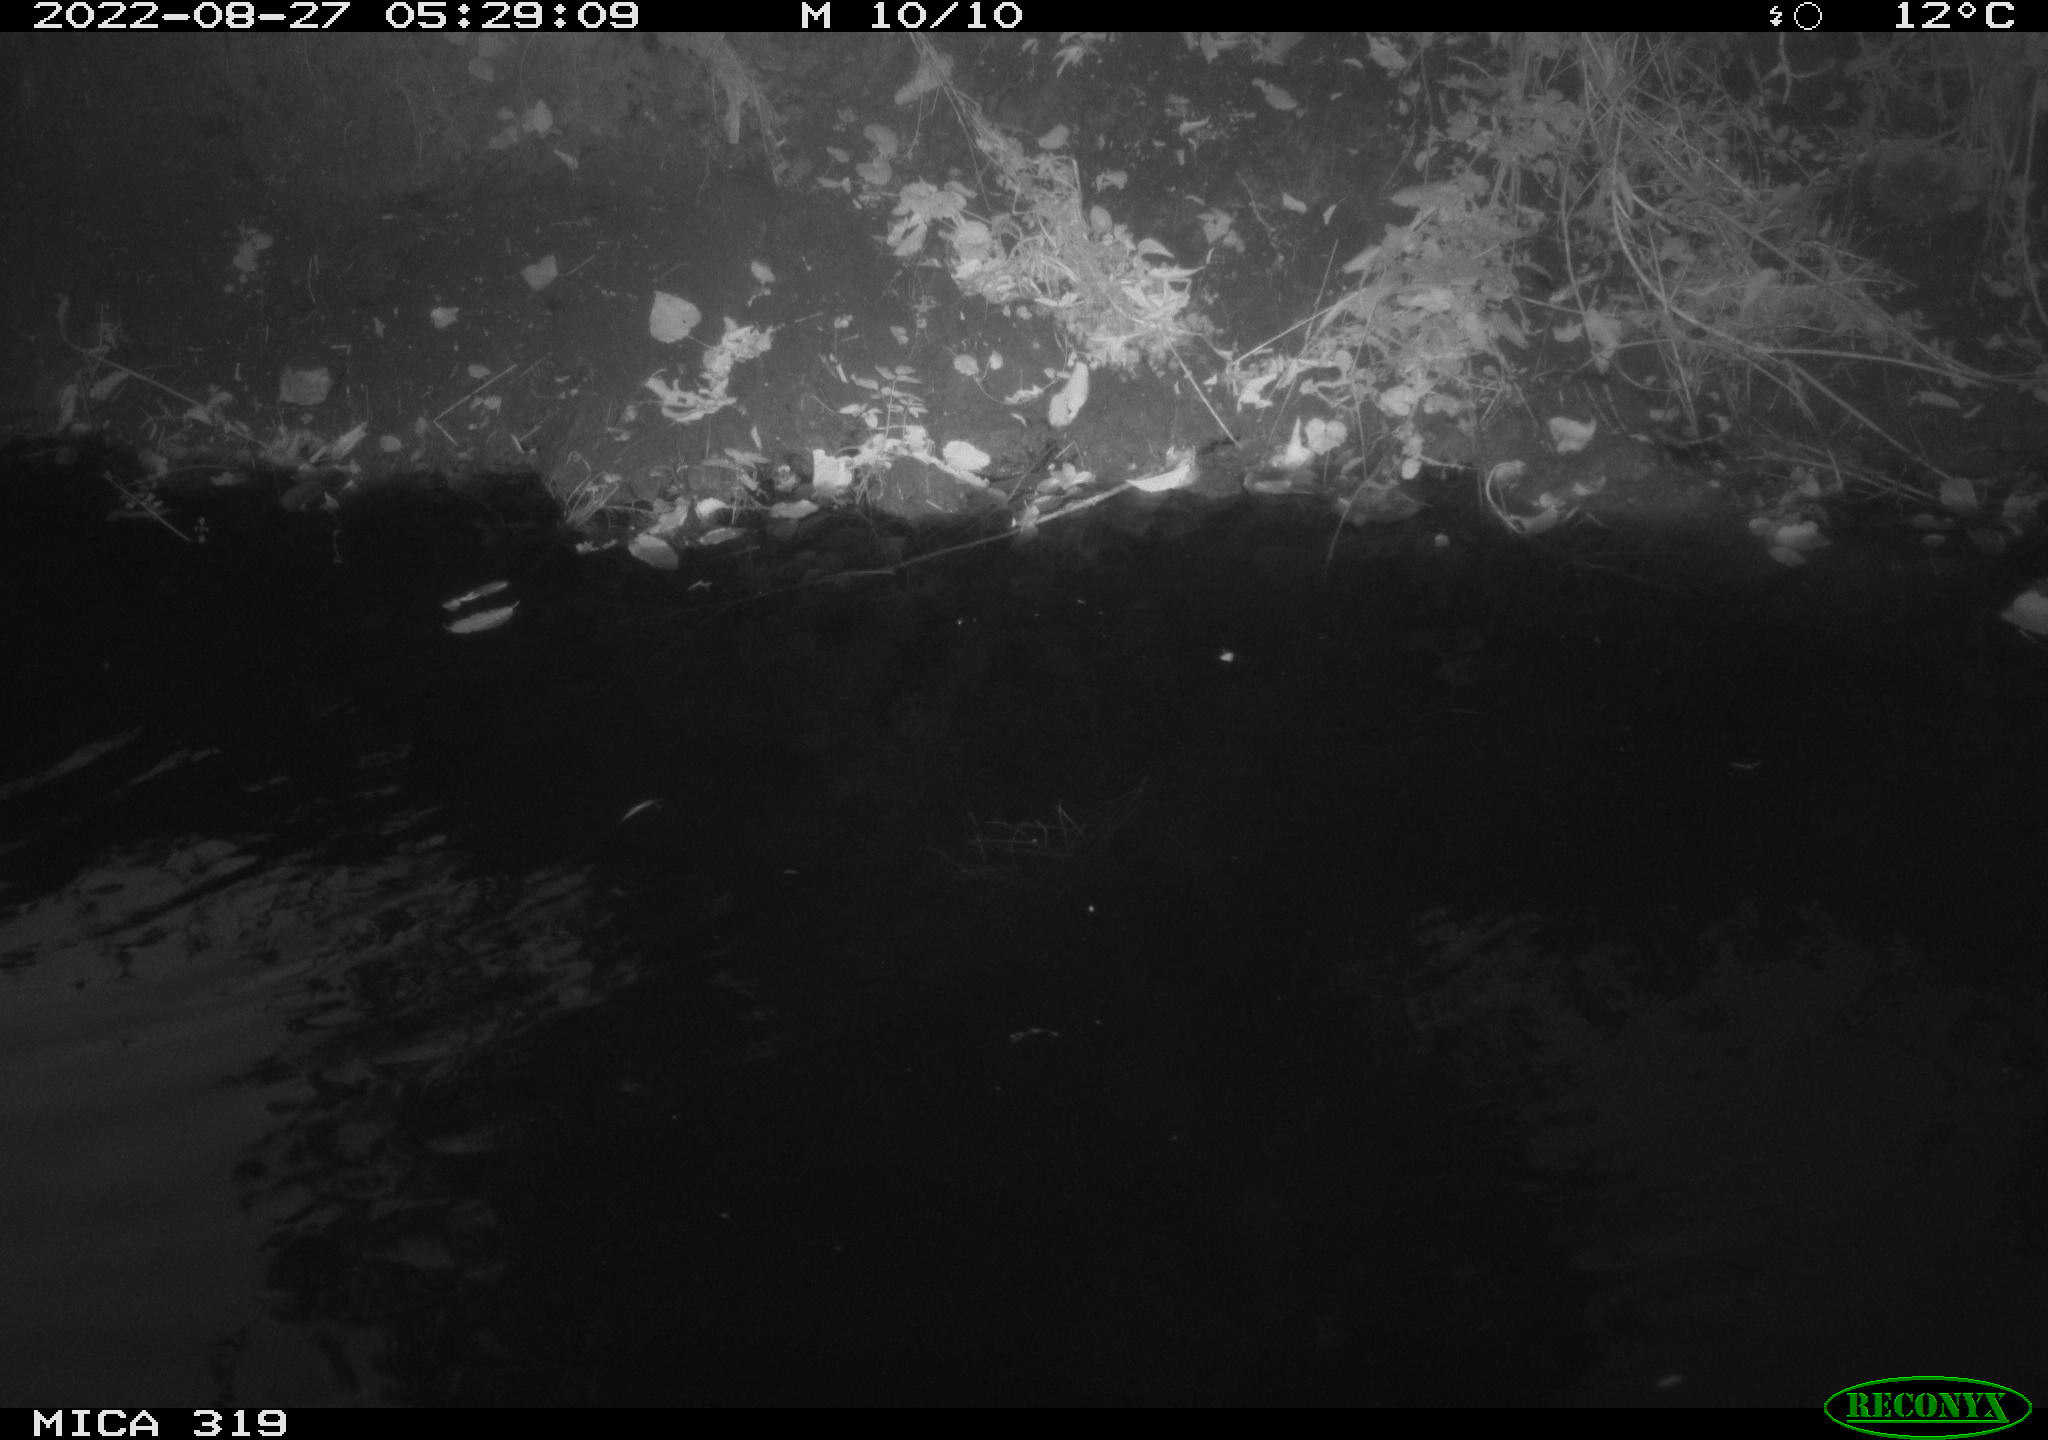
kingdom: Animalia
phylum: Chordata
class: Aves
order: Anseriformes
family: Anatidae
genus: Anas
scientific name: Anas
